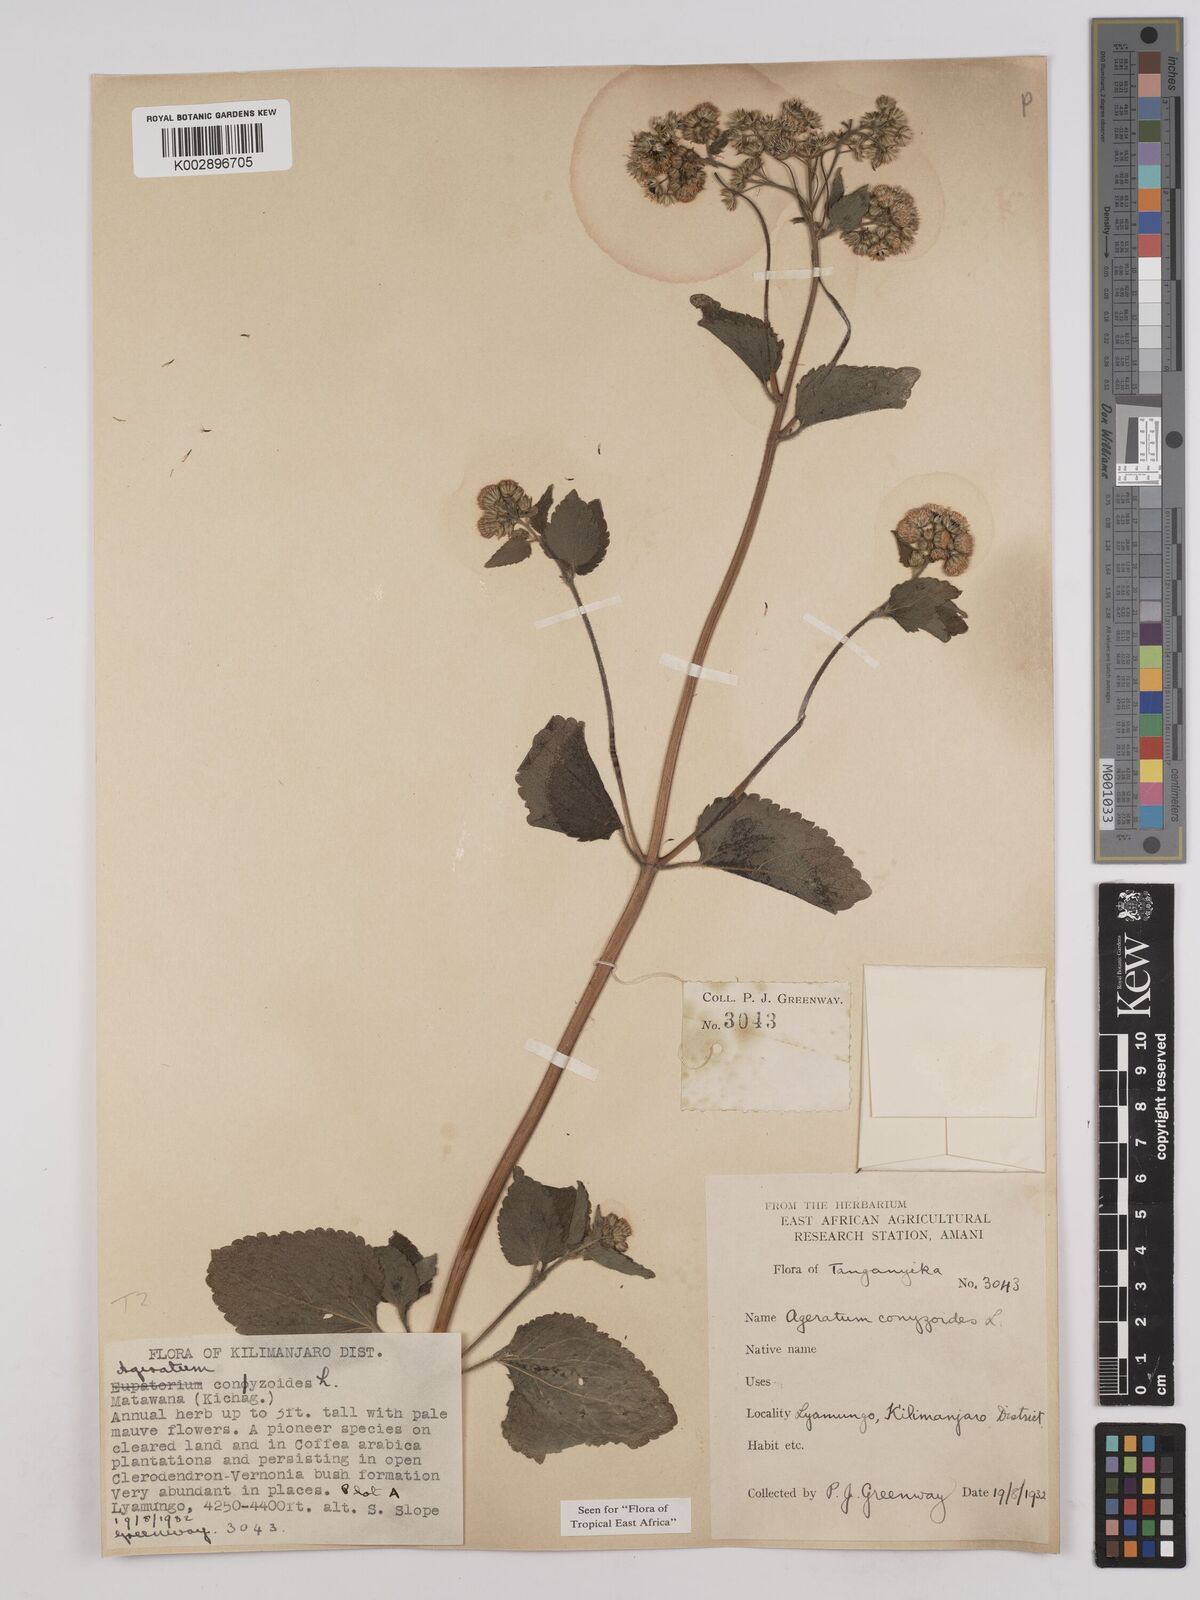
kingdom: Plantae
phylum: Tracheophyta
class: Magnoliopsida
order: Asterales
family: Asteraceae
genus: Ageratum
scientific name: Ageratum conyzoides
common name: Tropical whiteweed
